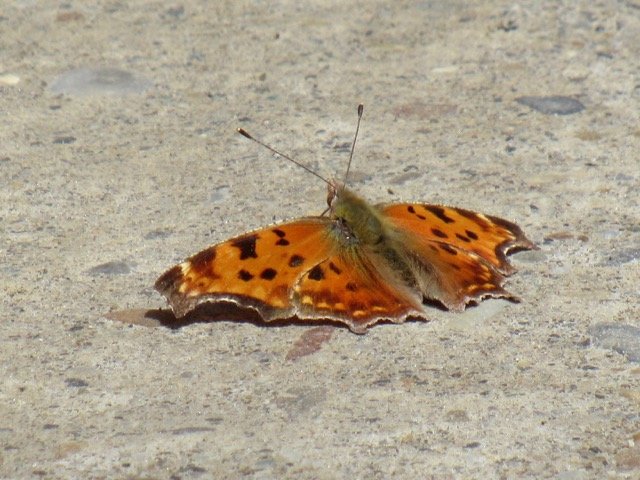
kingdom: Animalia
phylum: Arthropoda
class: Insecta
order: Lepidoptera
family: Nymphalidae
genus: Polygonia
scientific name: Polygonia comma
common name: Eastern Comma
